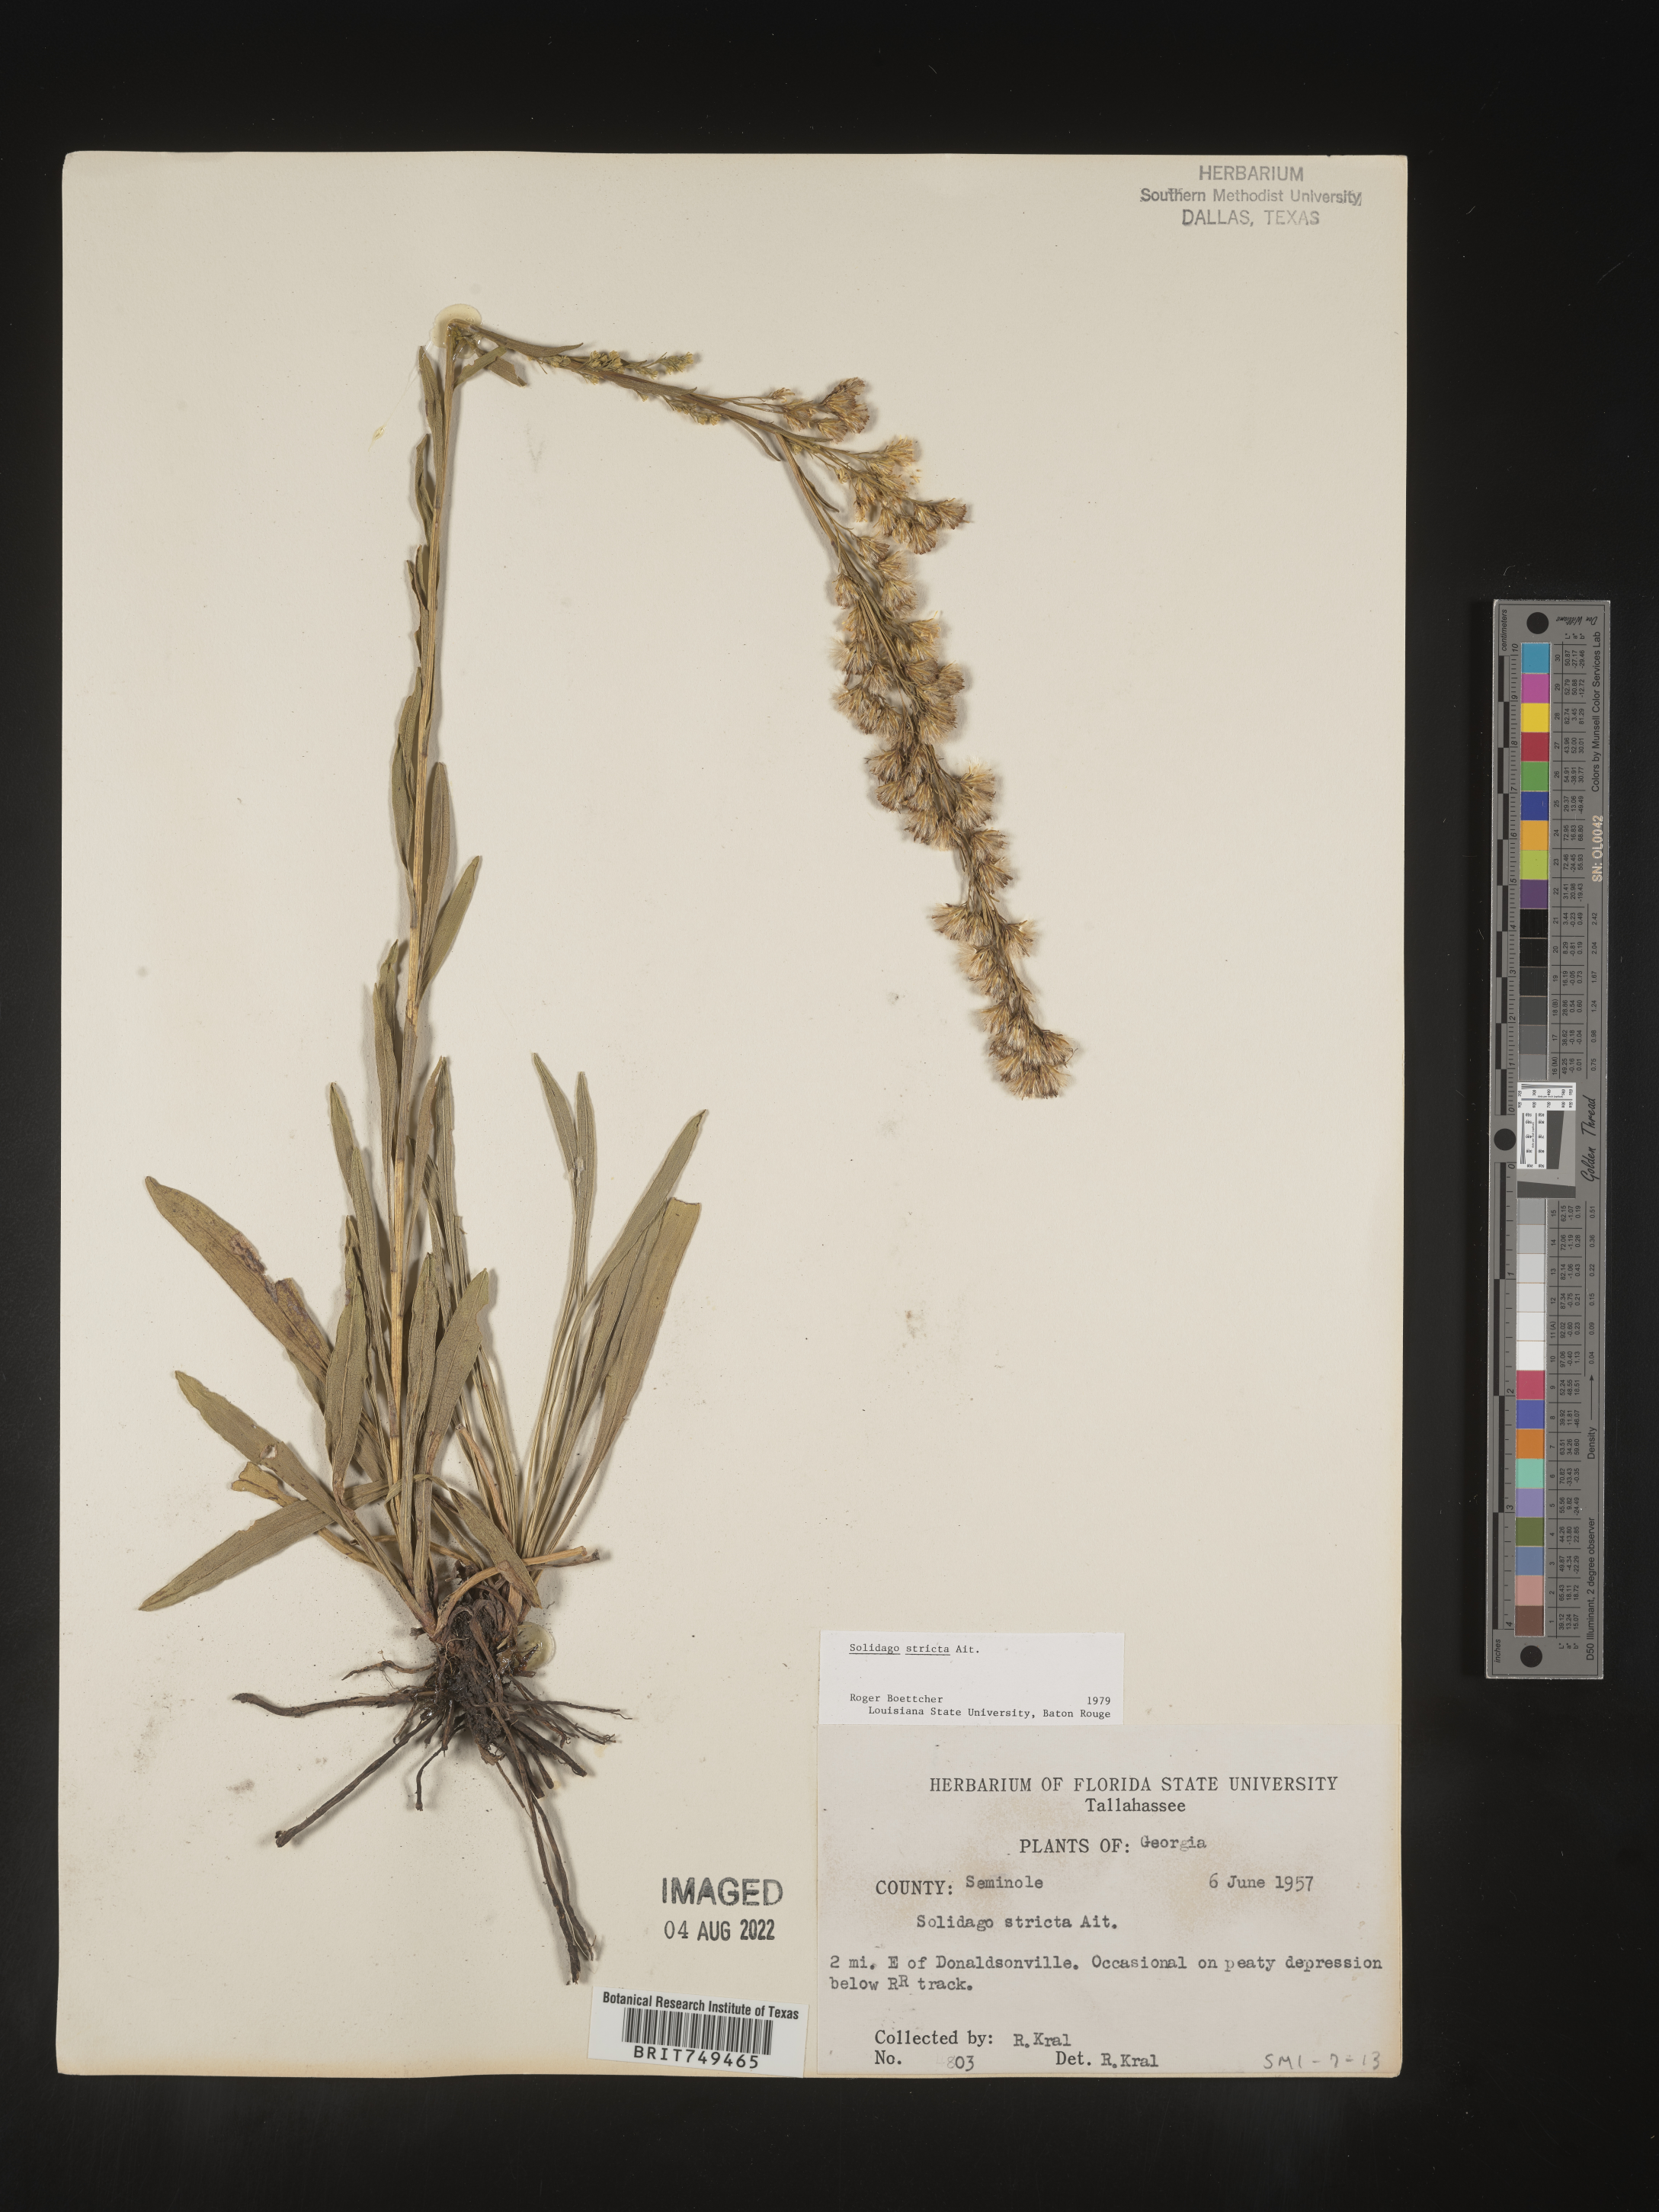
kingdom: Plantae
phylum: Tracheophyta
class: Magnoliopsida
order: Asterales
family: Asteraceae
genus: Solidago
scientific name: Solidago stricta
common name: Pine barren bog goldenrod
